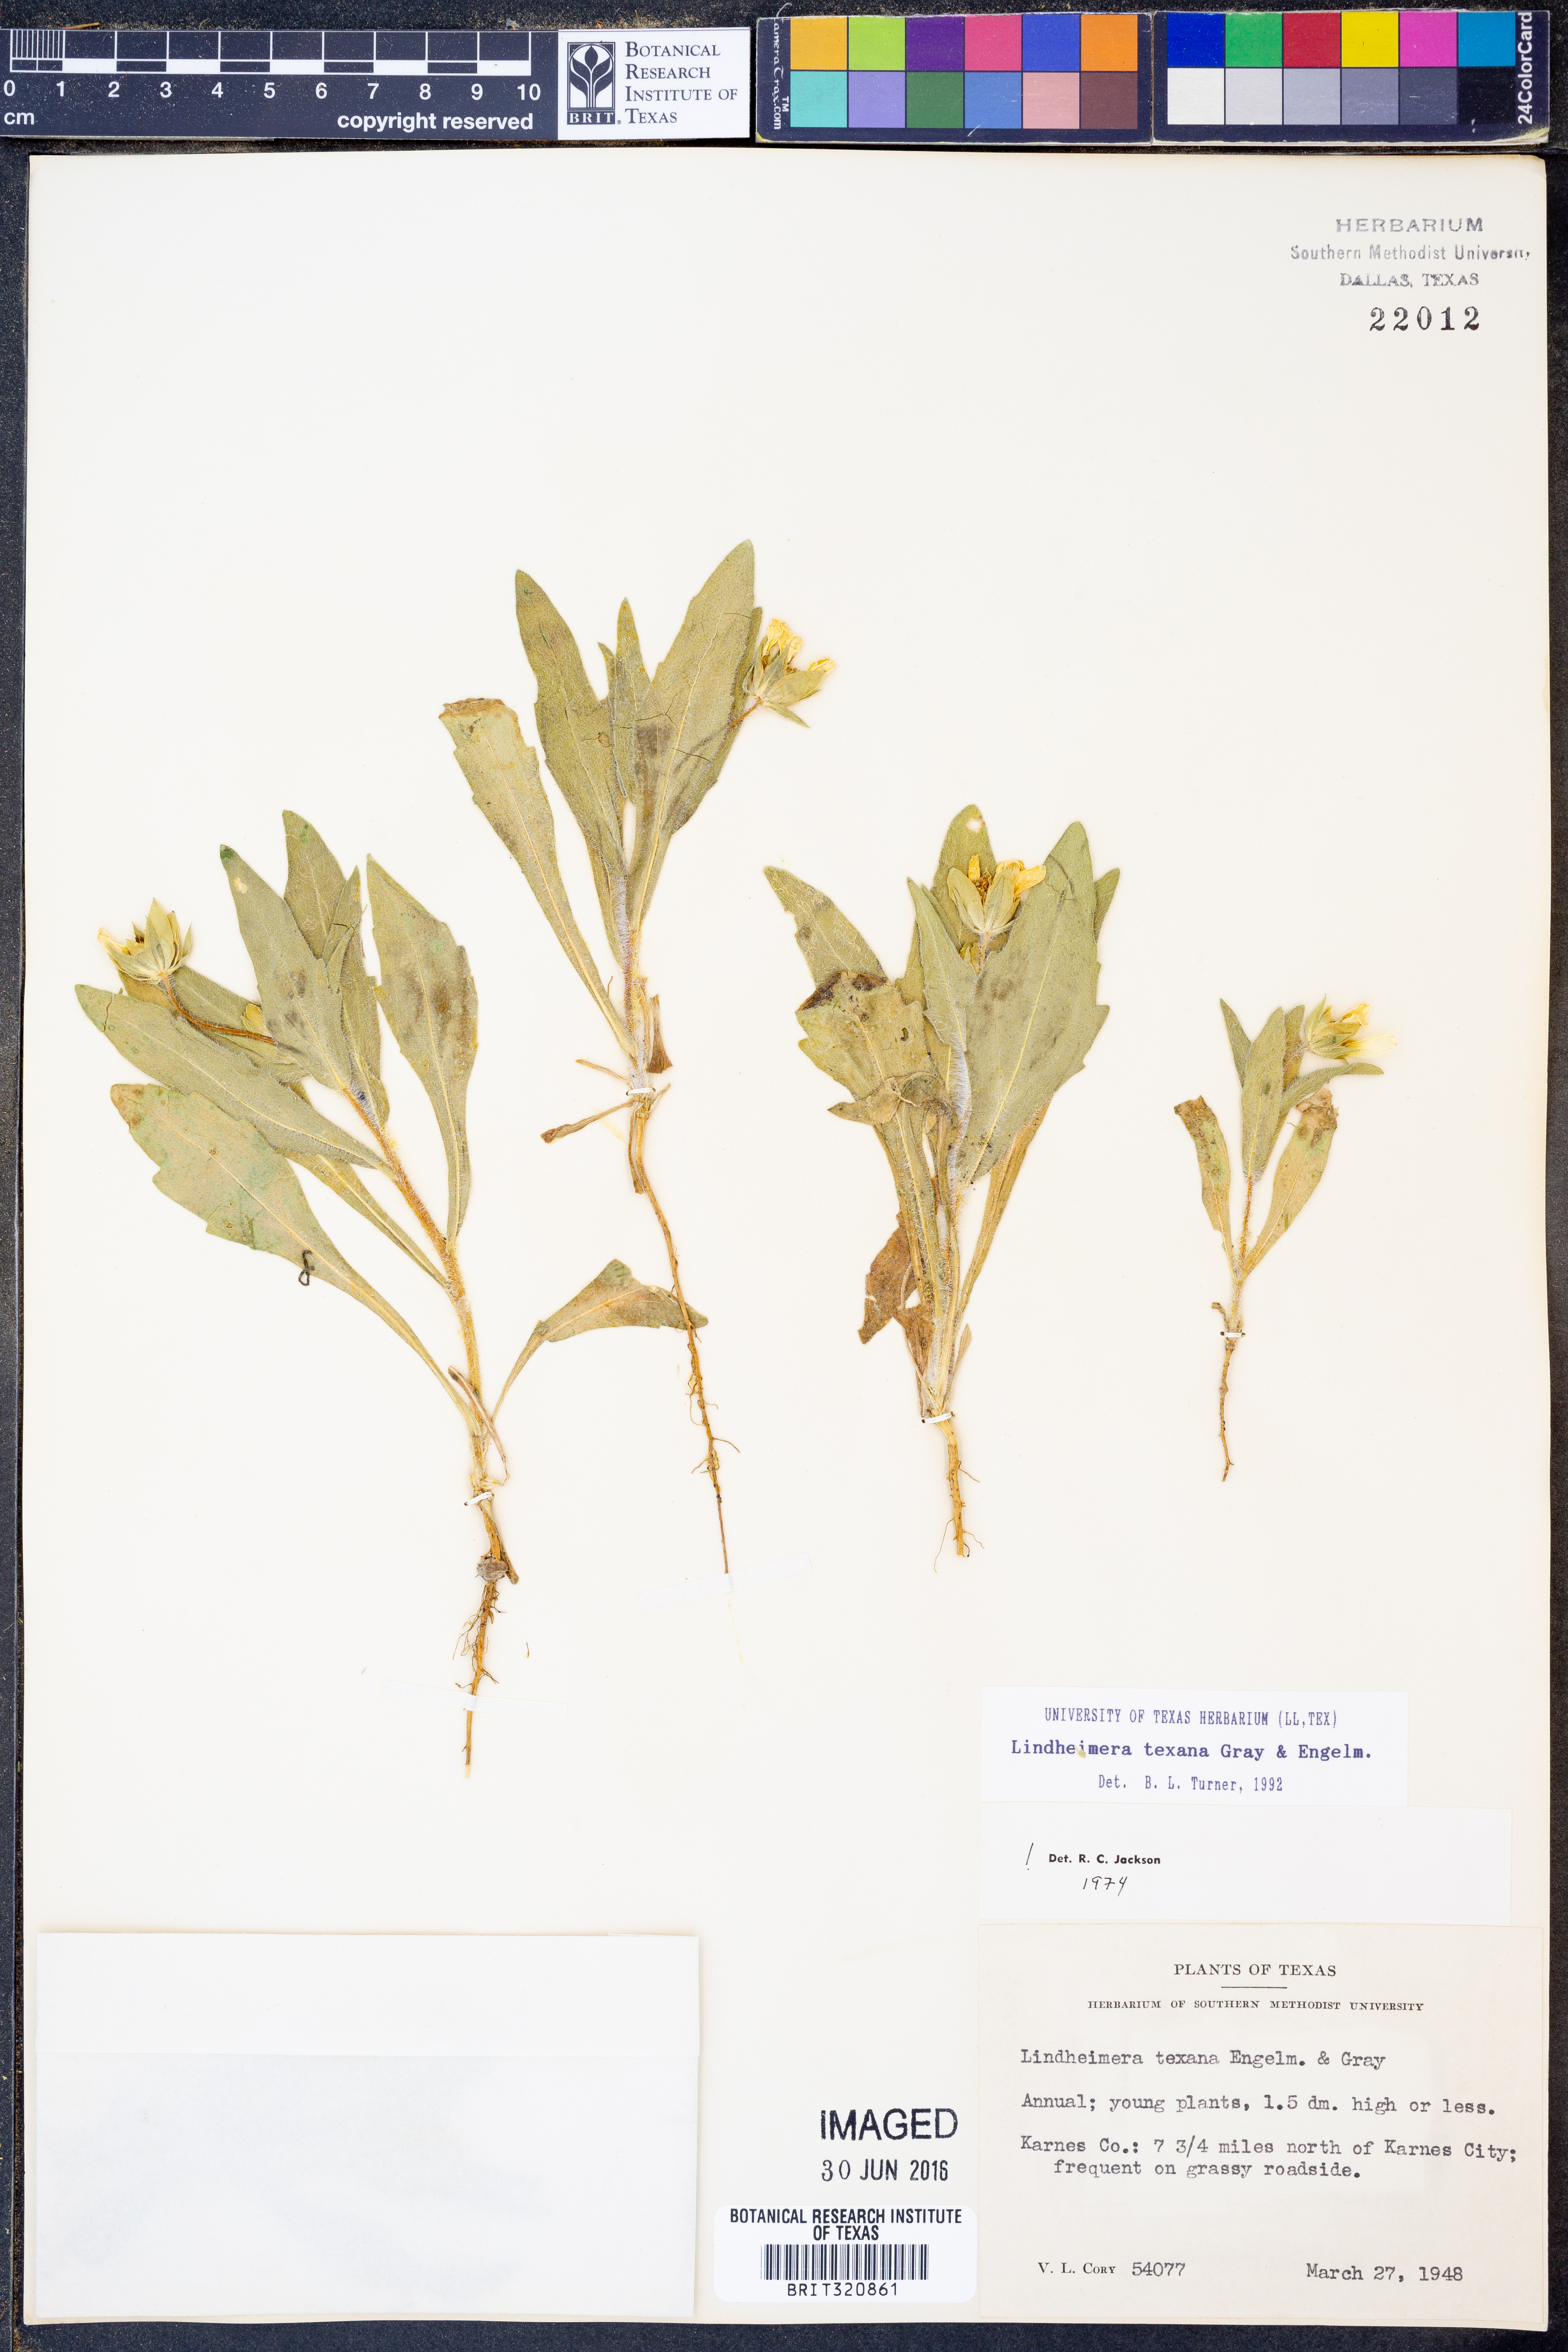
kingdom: Plantae
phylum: Tracheophyta
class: Magnoliopsida
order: Asterales
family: Asteraceae
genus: Lindheimera
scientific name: Lindheimera texana
